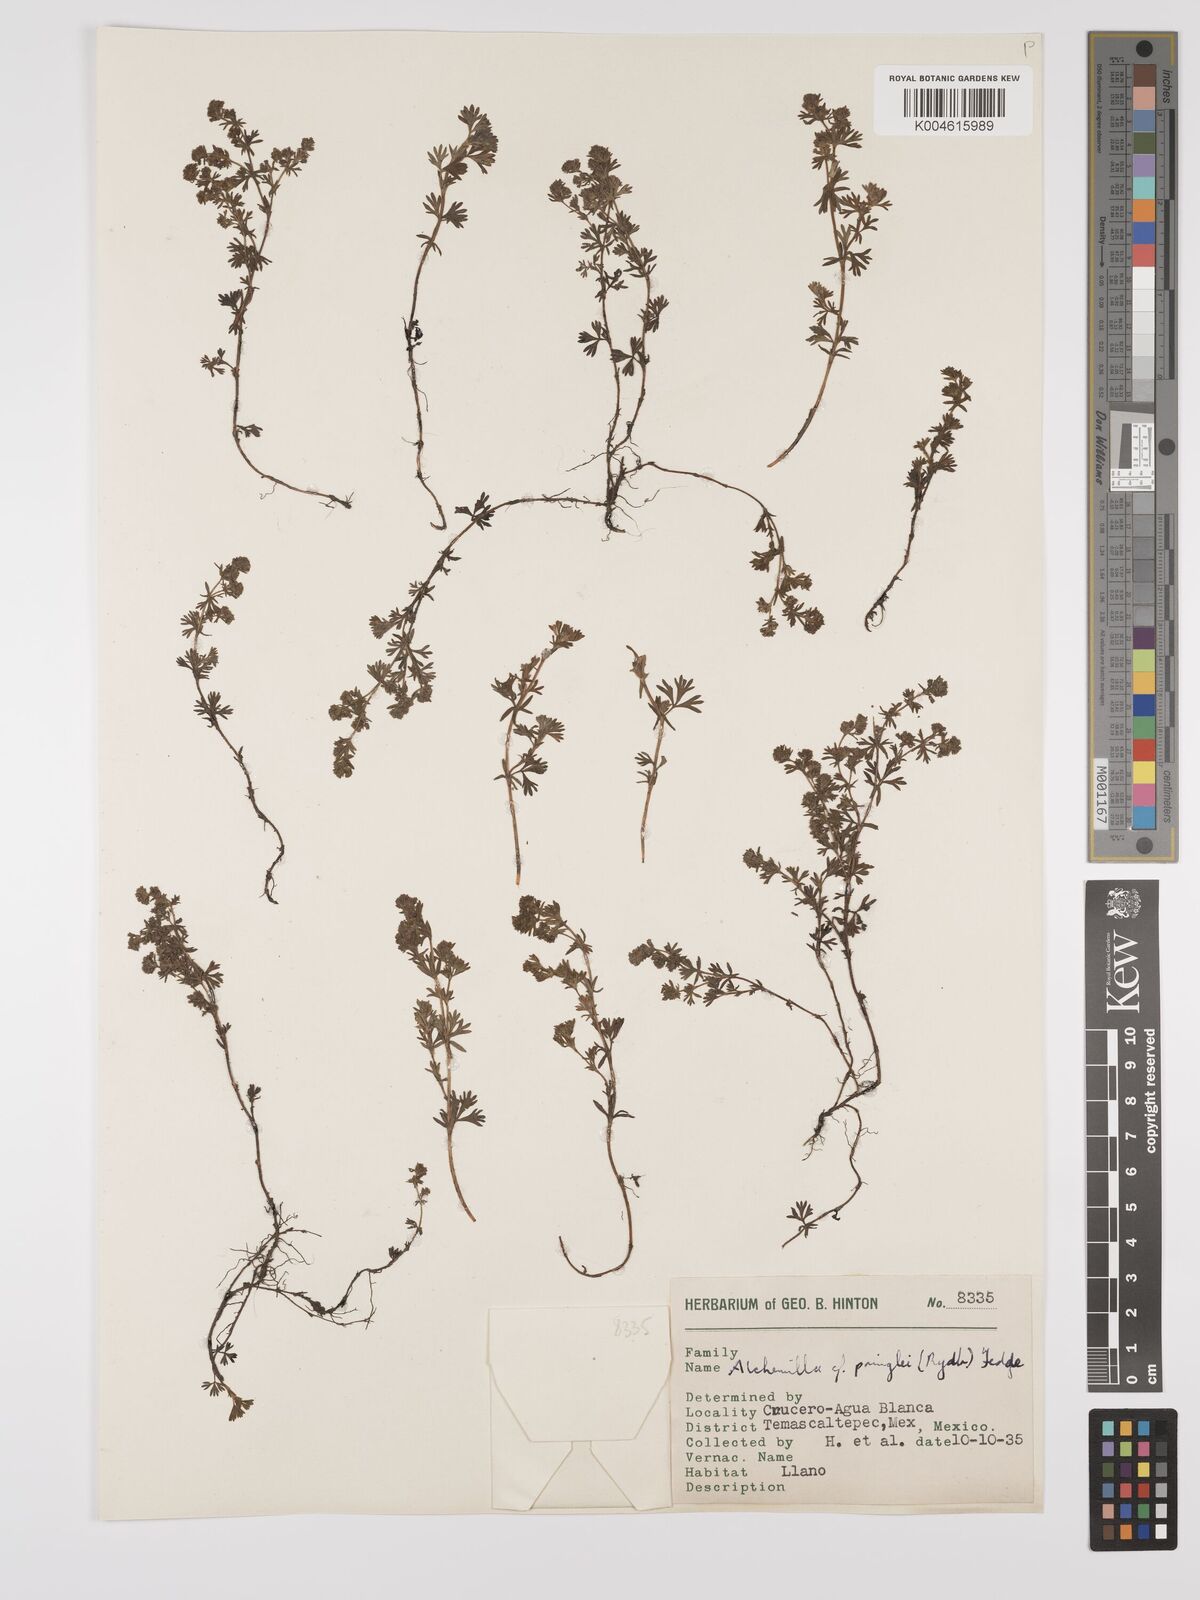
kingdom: Plantae
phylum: Tracheophyta
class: Magnoliopsida
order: Rosales
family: Rosaceae
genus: Lachemilla
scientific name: Lachemilla sibbaldiifolia
